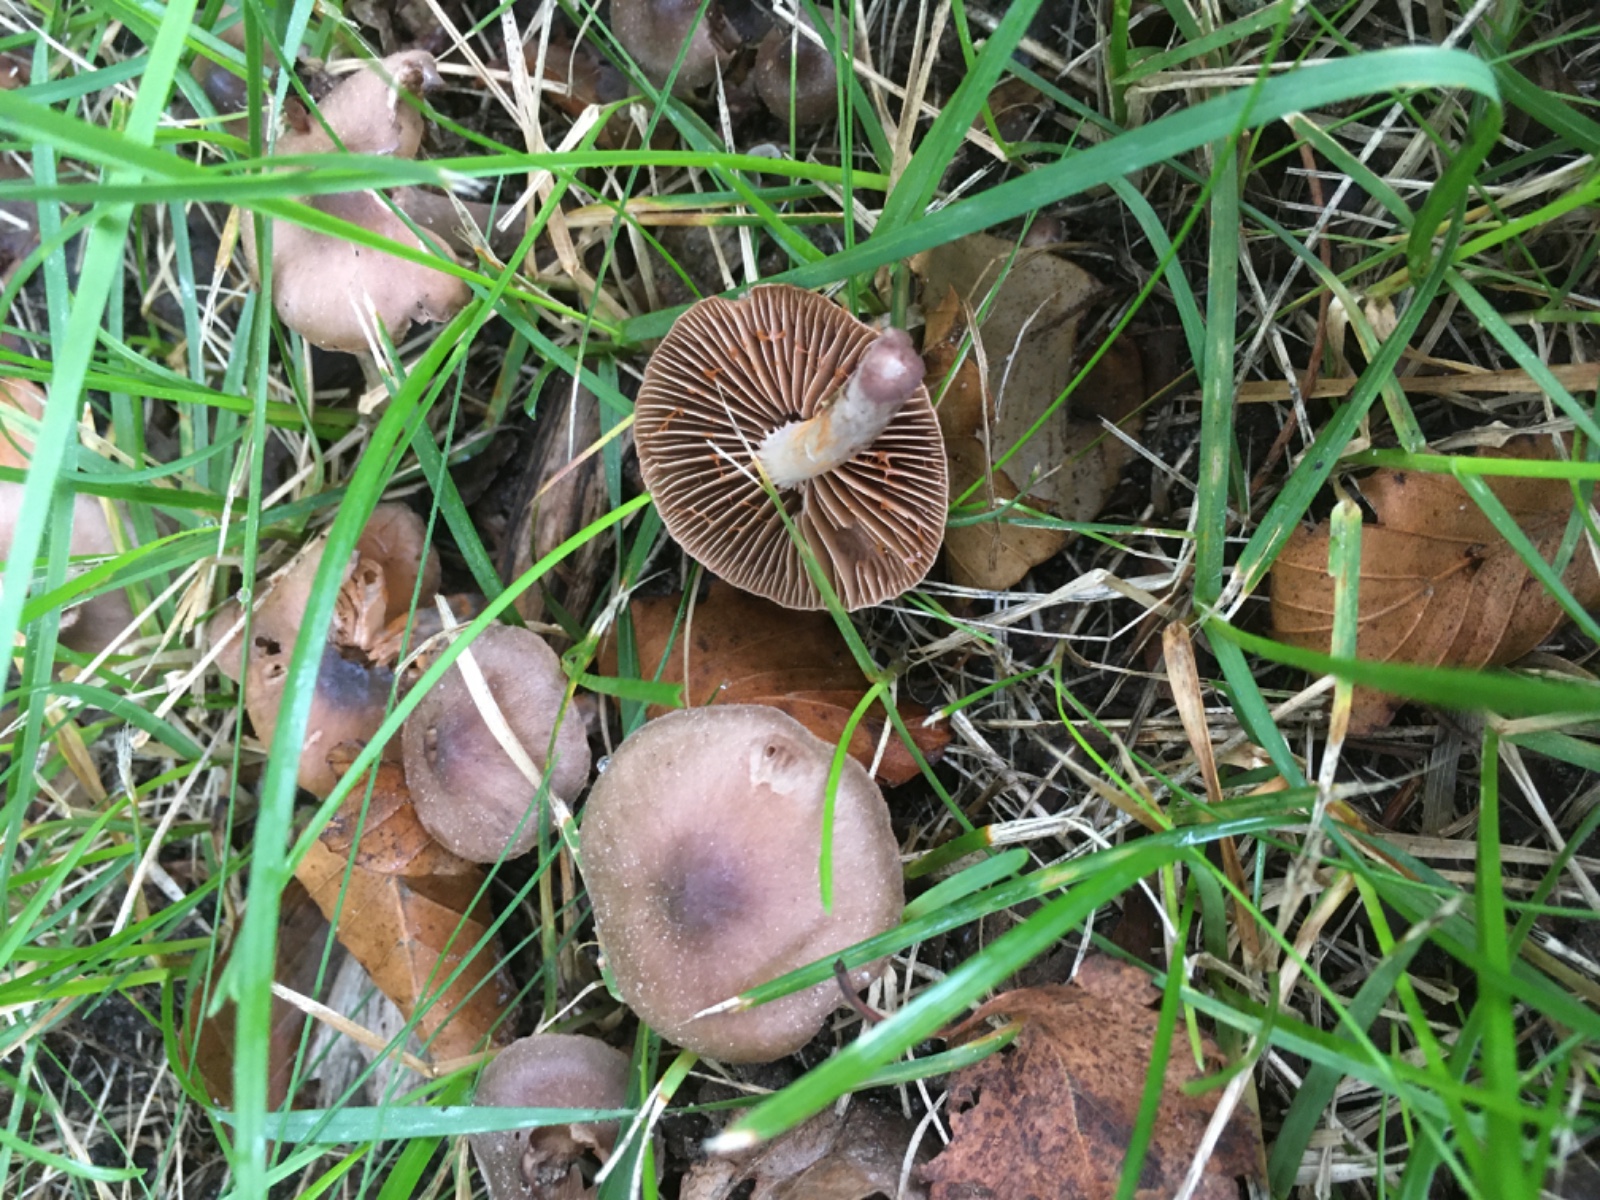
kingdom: Fungi
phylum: Basidiomycota
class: Agaricomycetes
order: Agaricales
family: Amanitaceae
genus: Amanita
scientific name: Amanita rubescens
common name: rødmende fluesvamp
